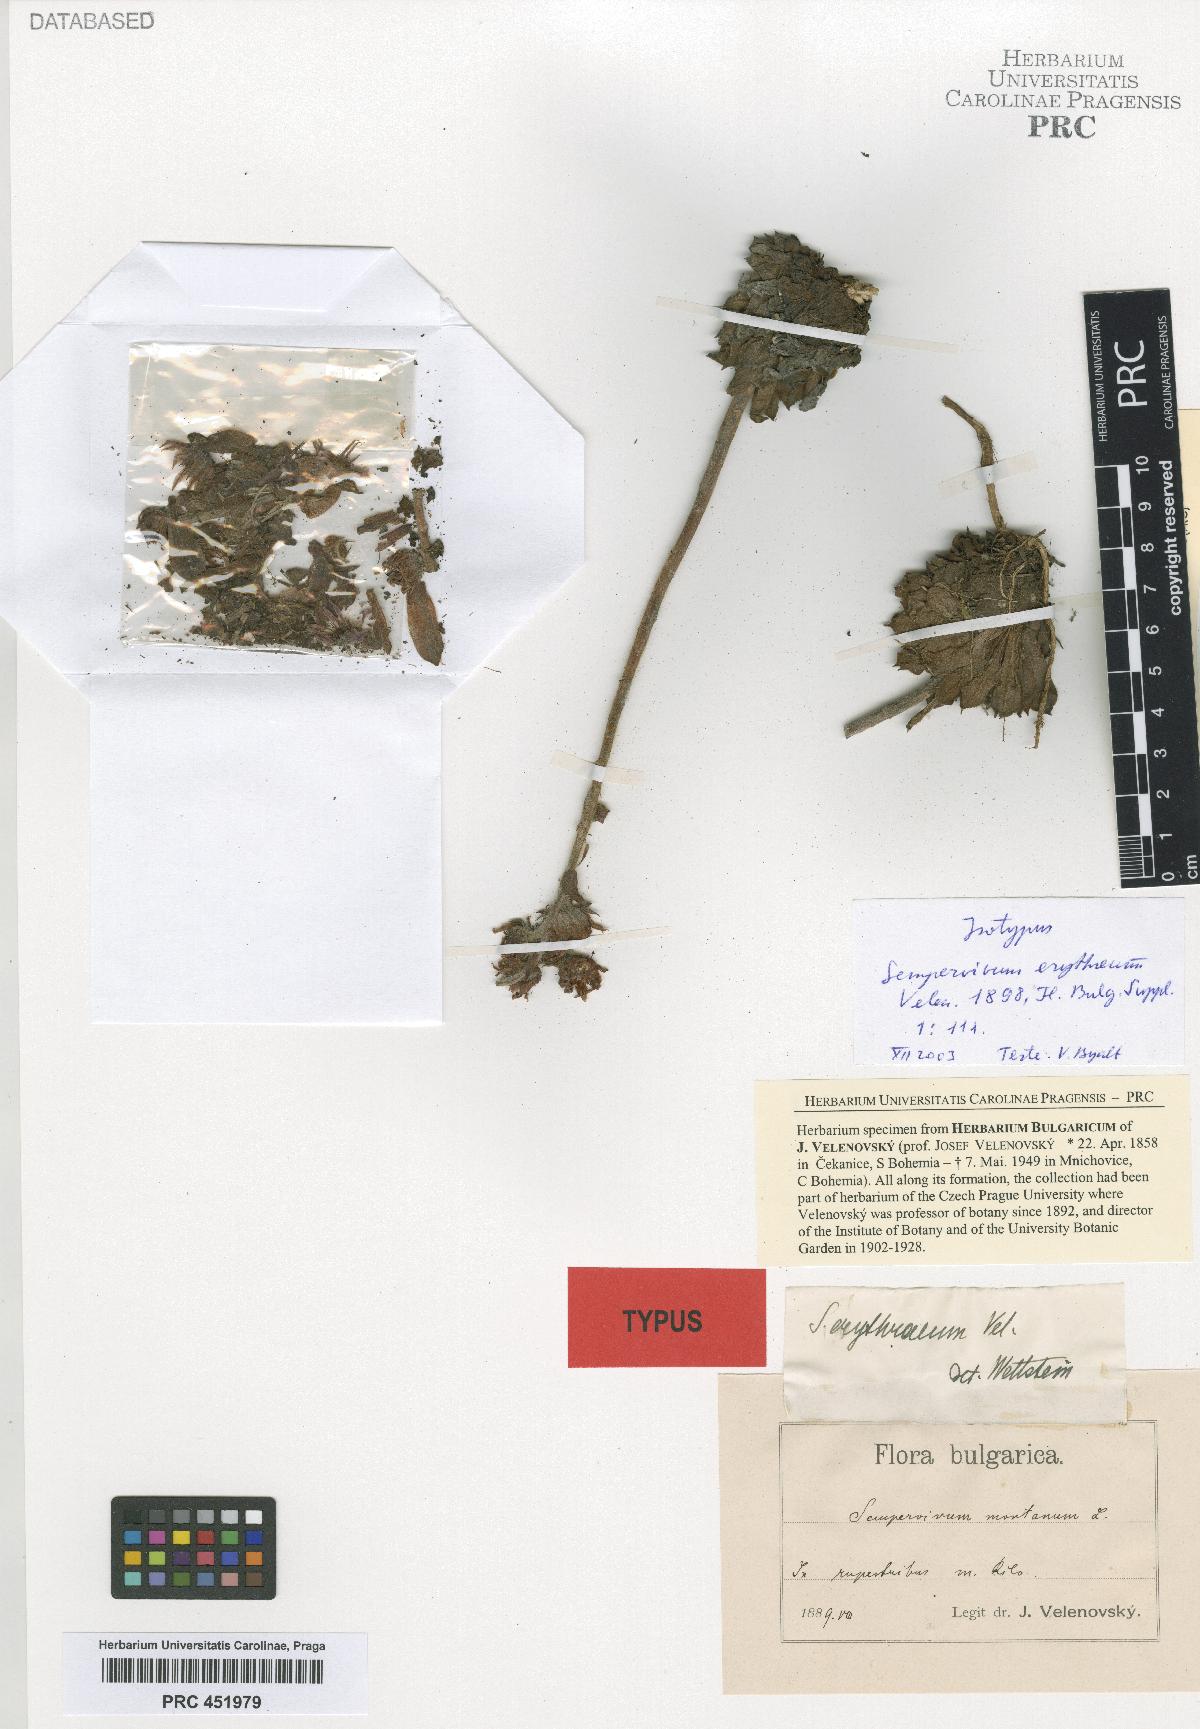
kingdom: Plantae
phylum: Tracheophyta
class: Magnoliopsida
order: Saxifragales
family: Crassulaceae
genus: Sempervivum
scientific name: Sempervivum marmoreum
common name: Houseleek
